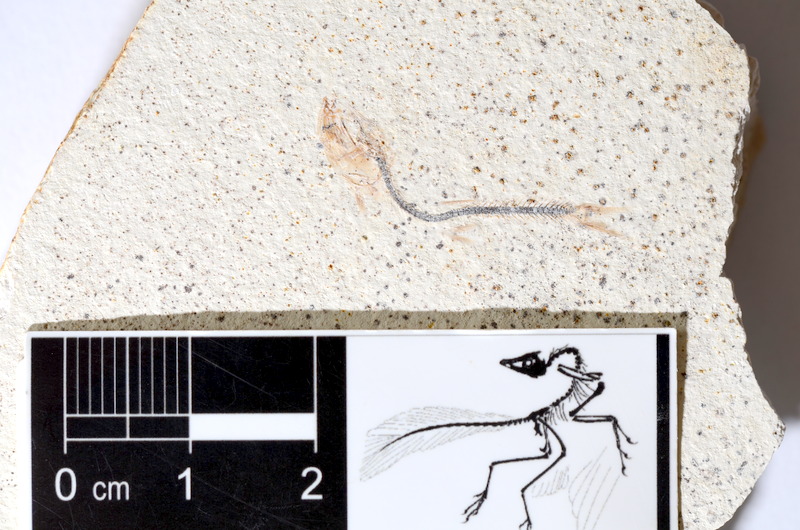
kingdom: Animalia
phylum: Chordata
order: Salmoniformes
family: Orthogonikleithridae
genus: Orthogonikleithrus
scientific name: Orthogonikleithrus hoelli
